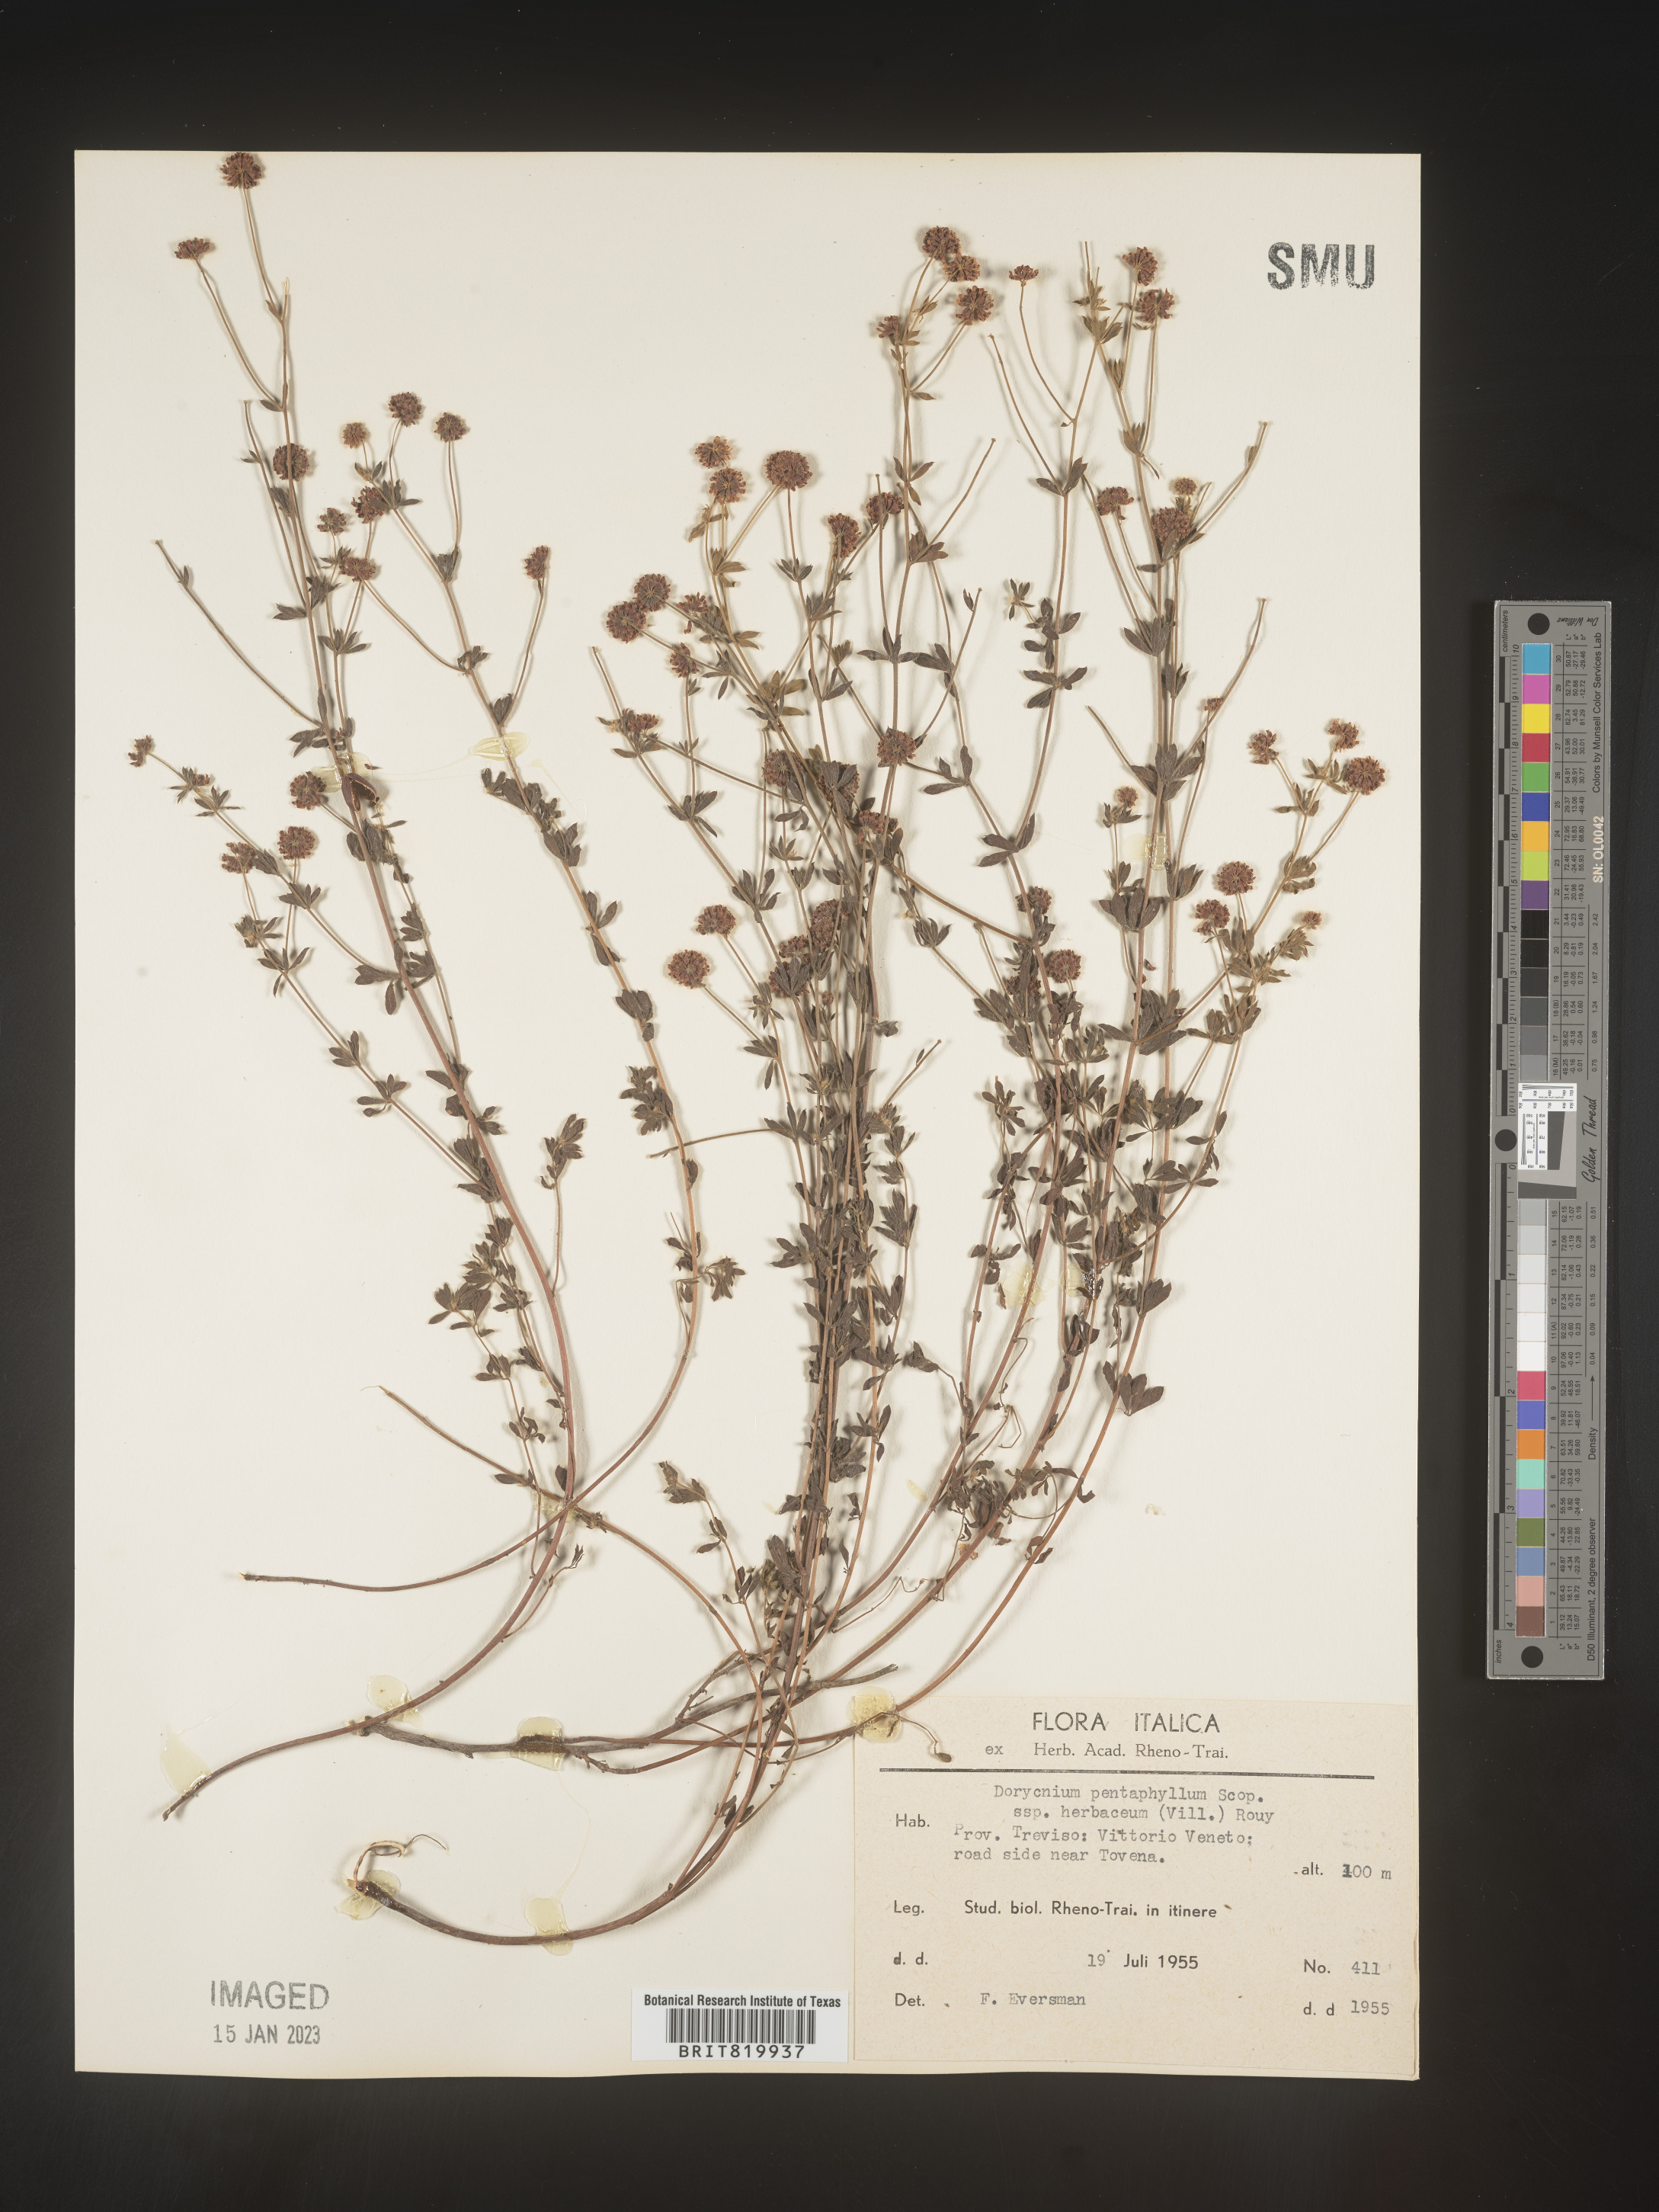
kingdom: Plantae
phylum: Tracheophyta
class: Magnoliopsida
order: Fabales
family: Fabaceae
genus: Lotus
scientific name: Lotus
